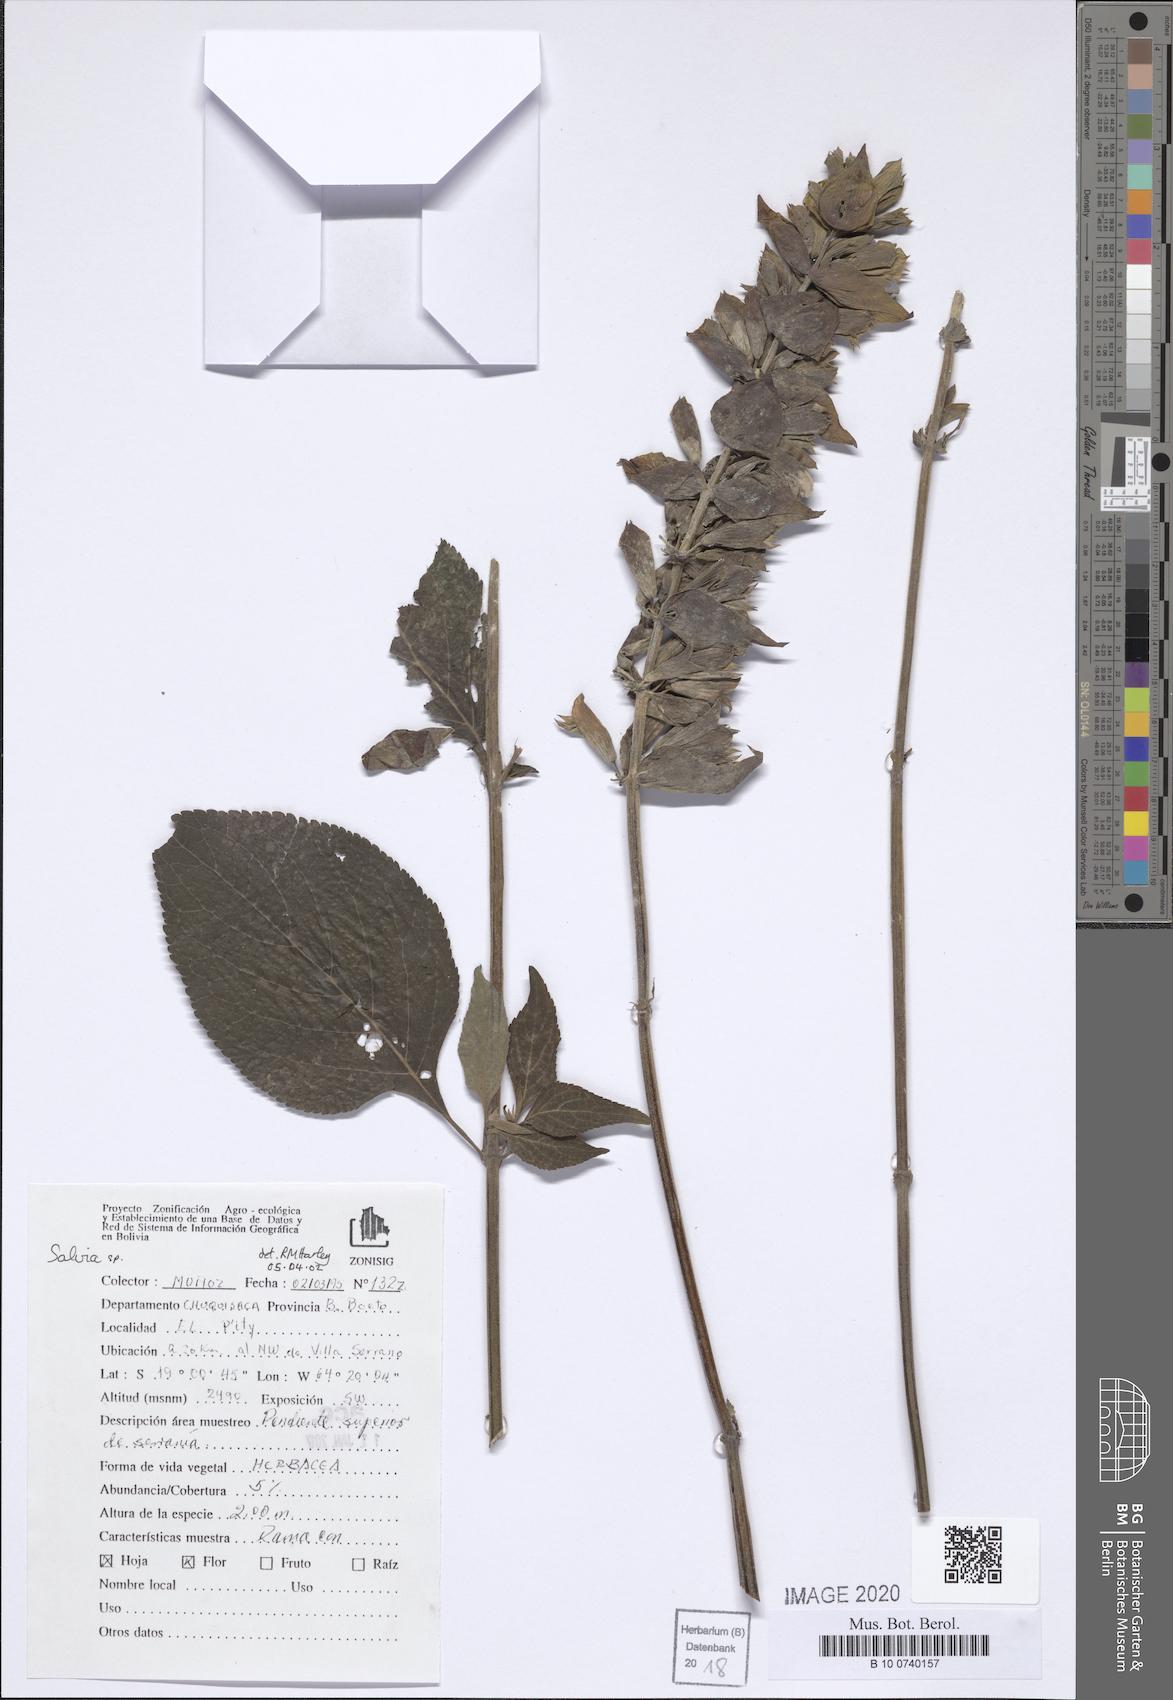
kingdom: Plantae
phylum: Tracheophyta
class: Magnoliopsida
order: Lamiales
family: Lamiaceae
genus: Salvia
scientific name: Salvia
